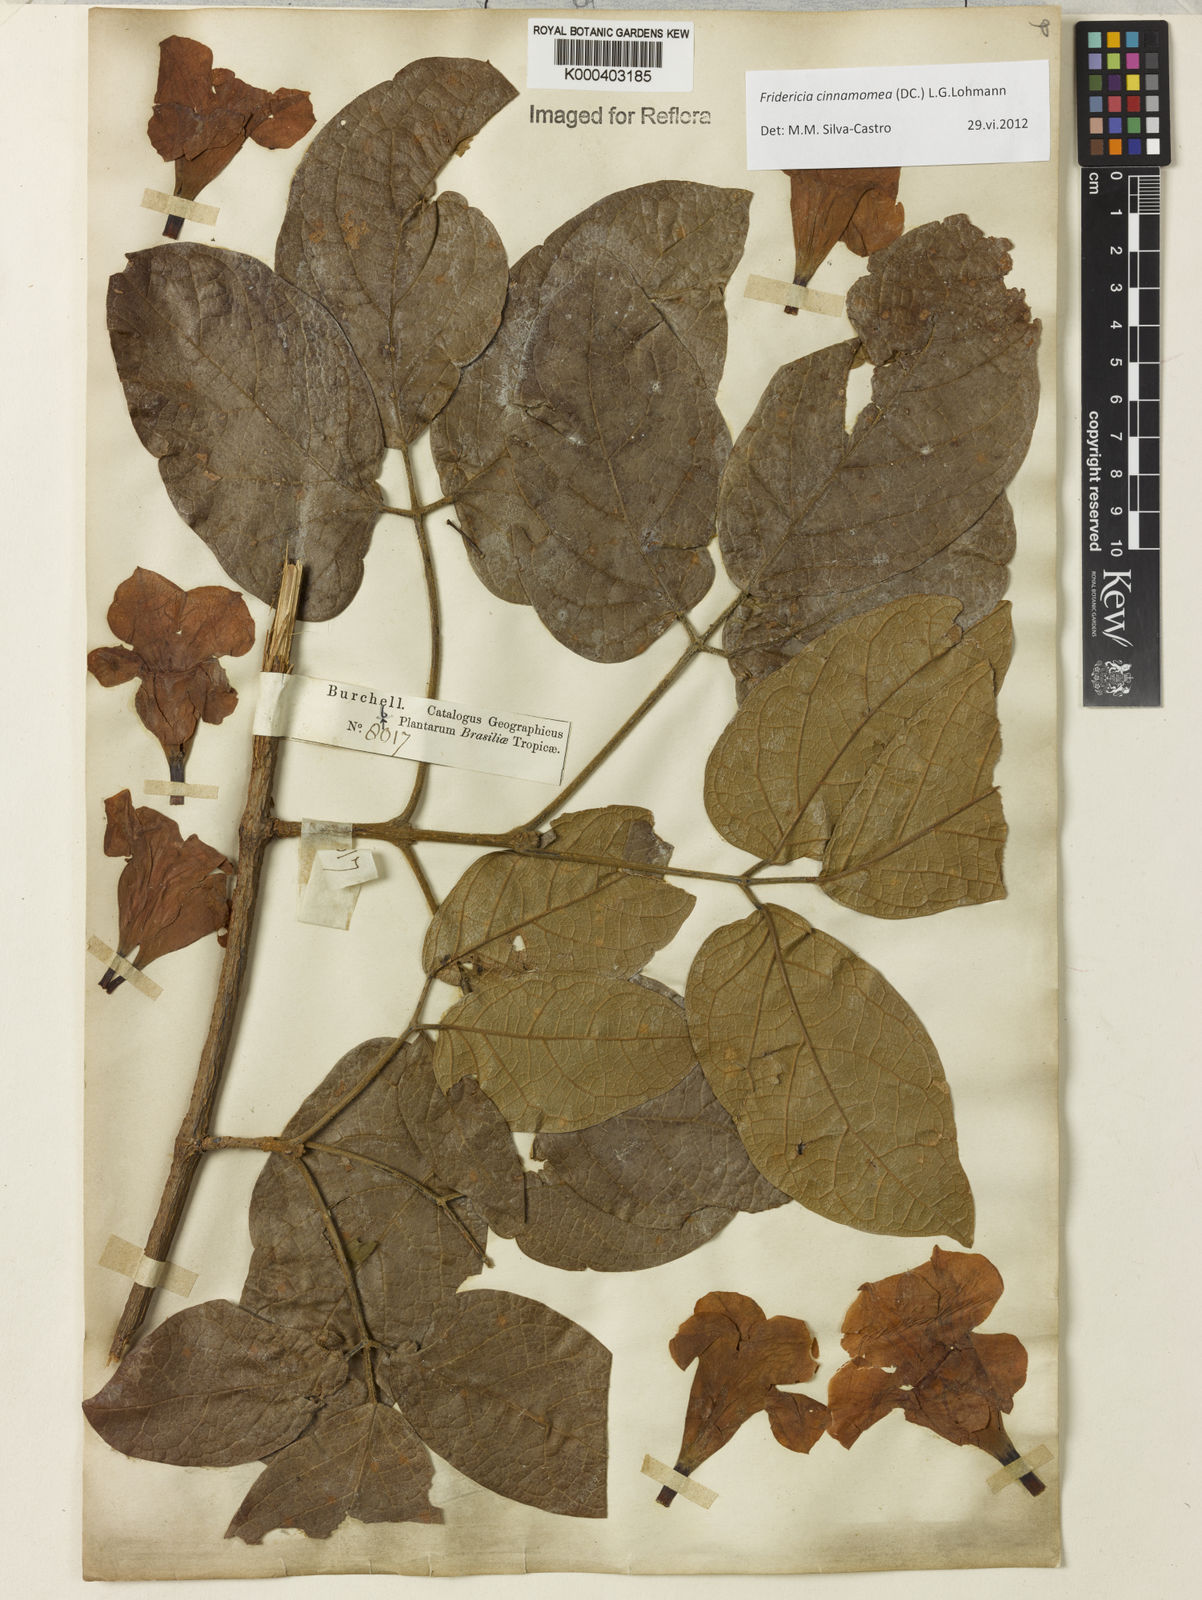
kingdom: Plantae
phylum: Tracheophyta
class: Magnoliopsida
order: Lamiales
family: Bignoniaceae
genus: Fridericia
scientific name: Fridericia cinnamomea
